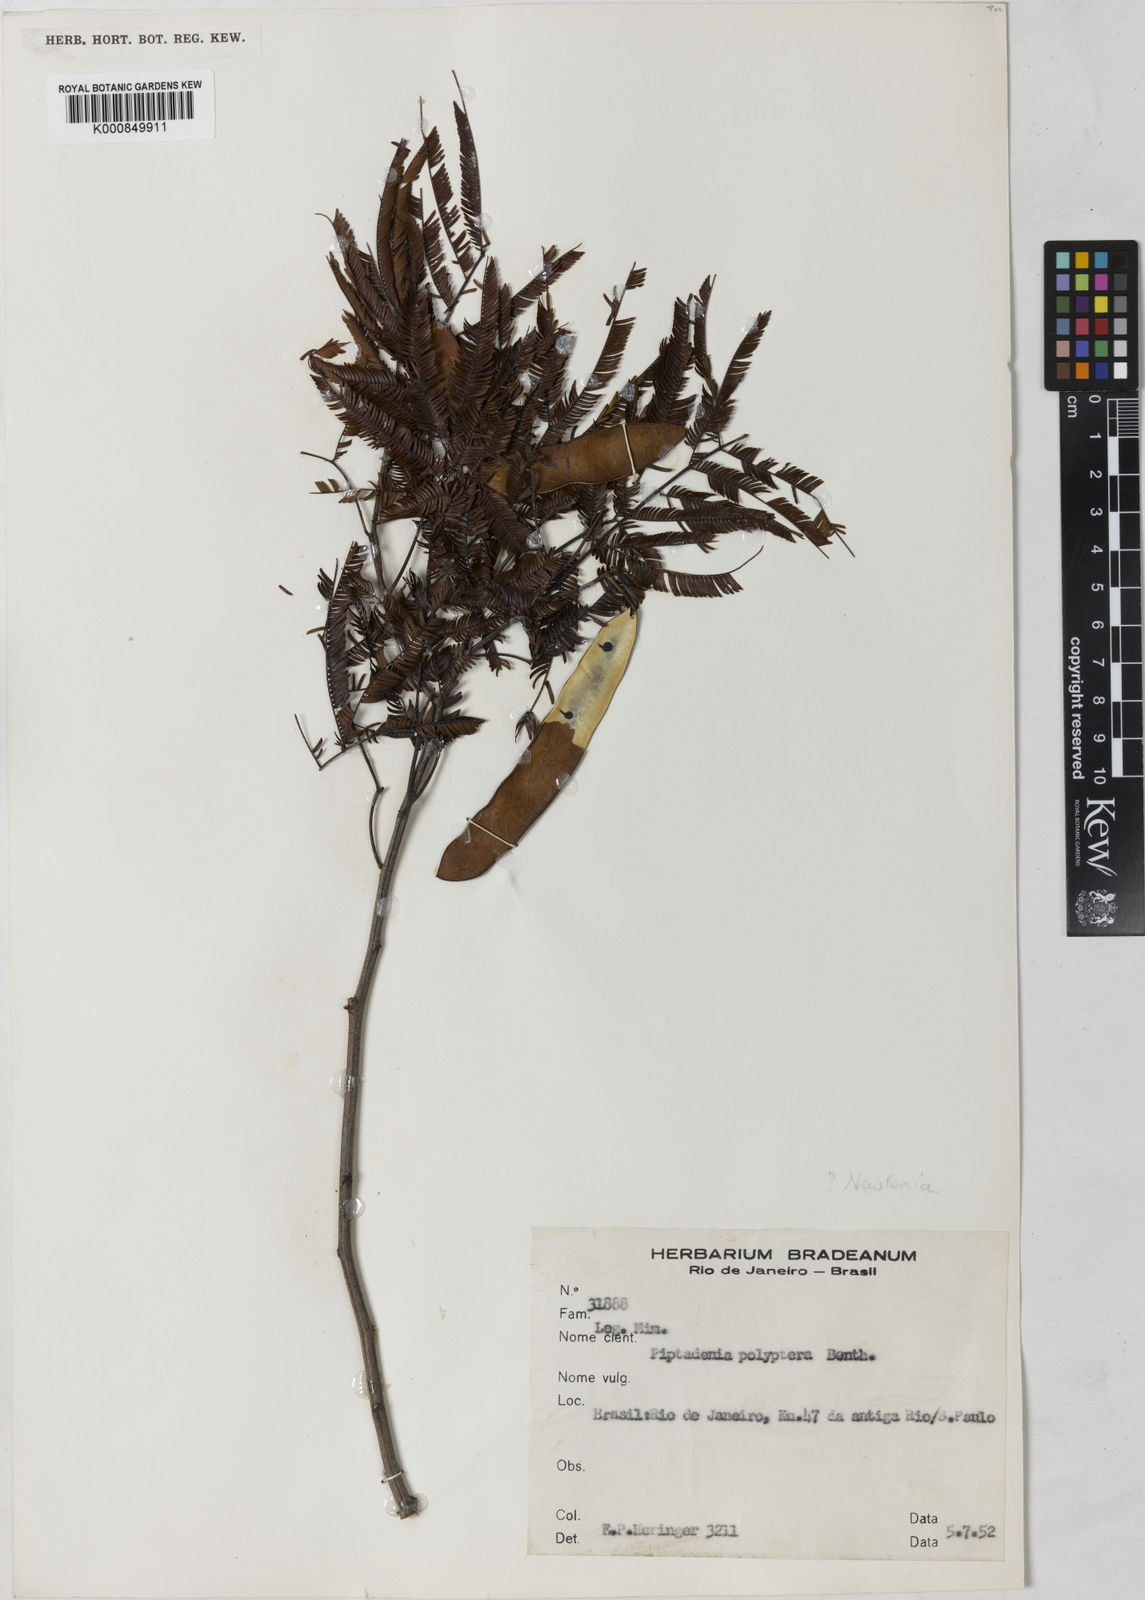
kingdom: Plantae
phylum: Tracheophyta
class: Magnoliopsida
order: Fabales
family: Fabaceae
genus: Piptadenia
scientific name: Piptadenia trisperma
